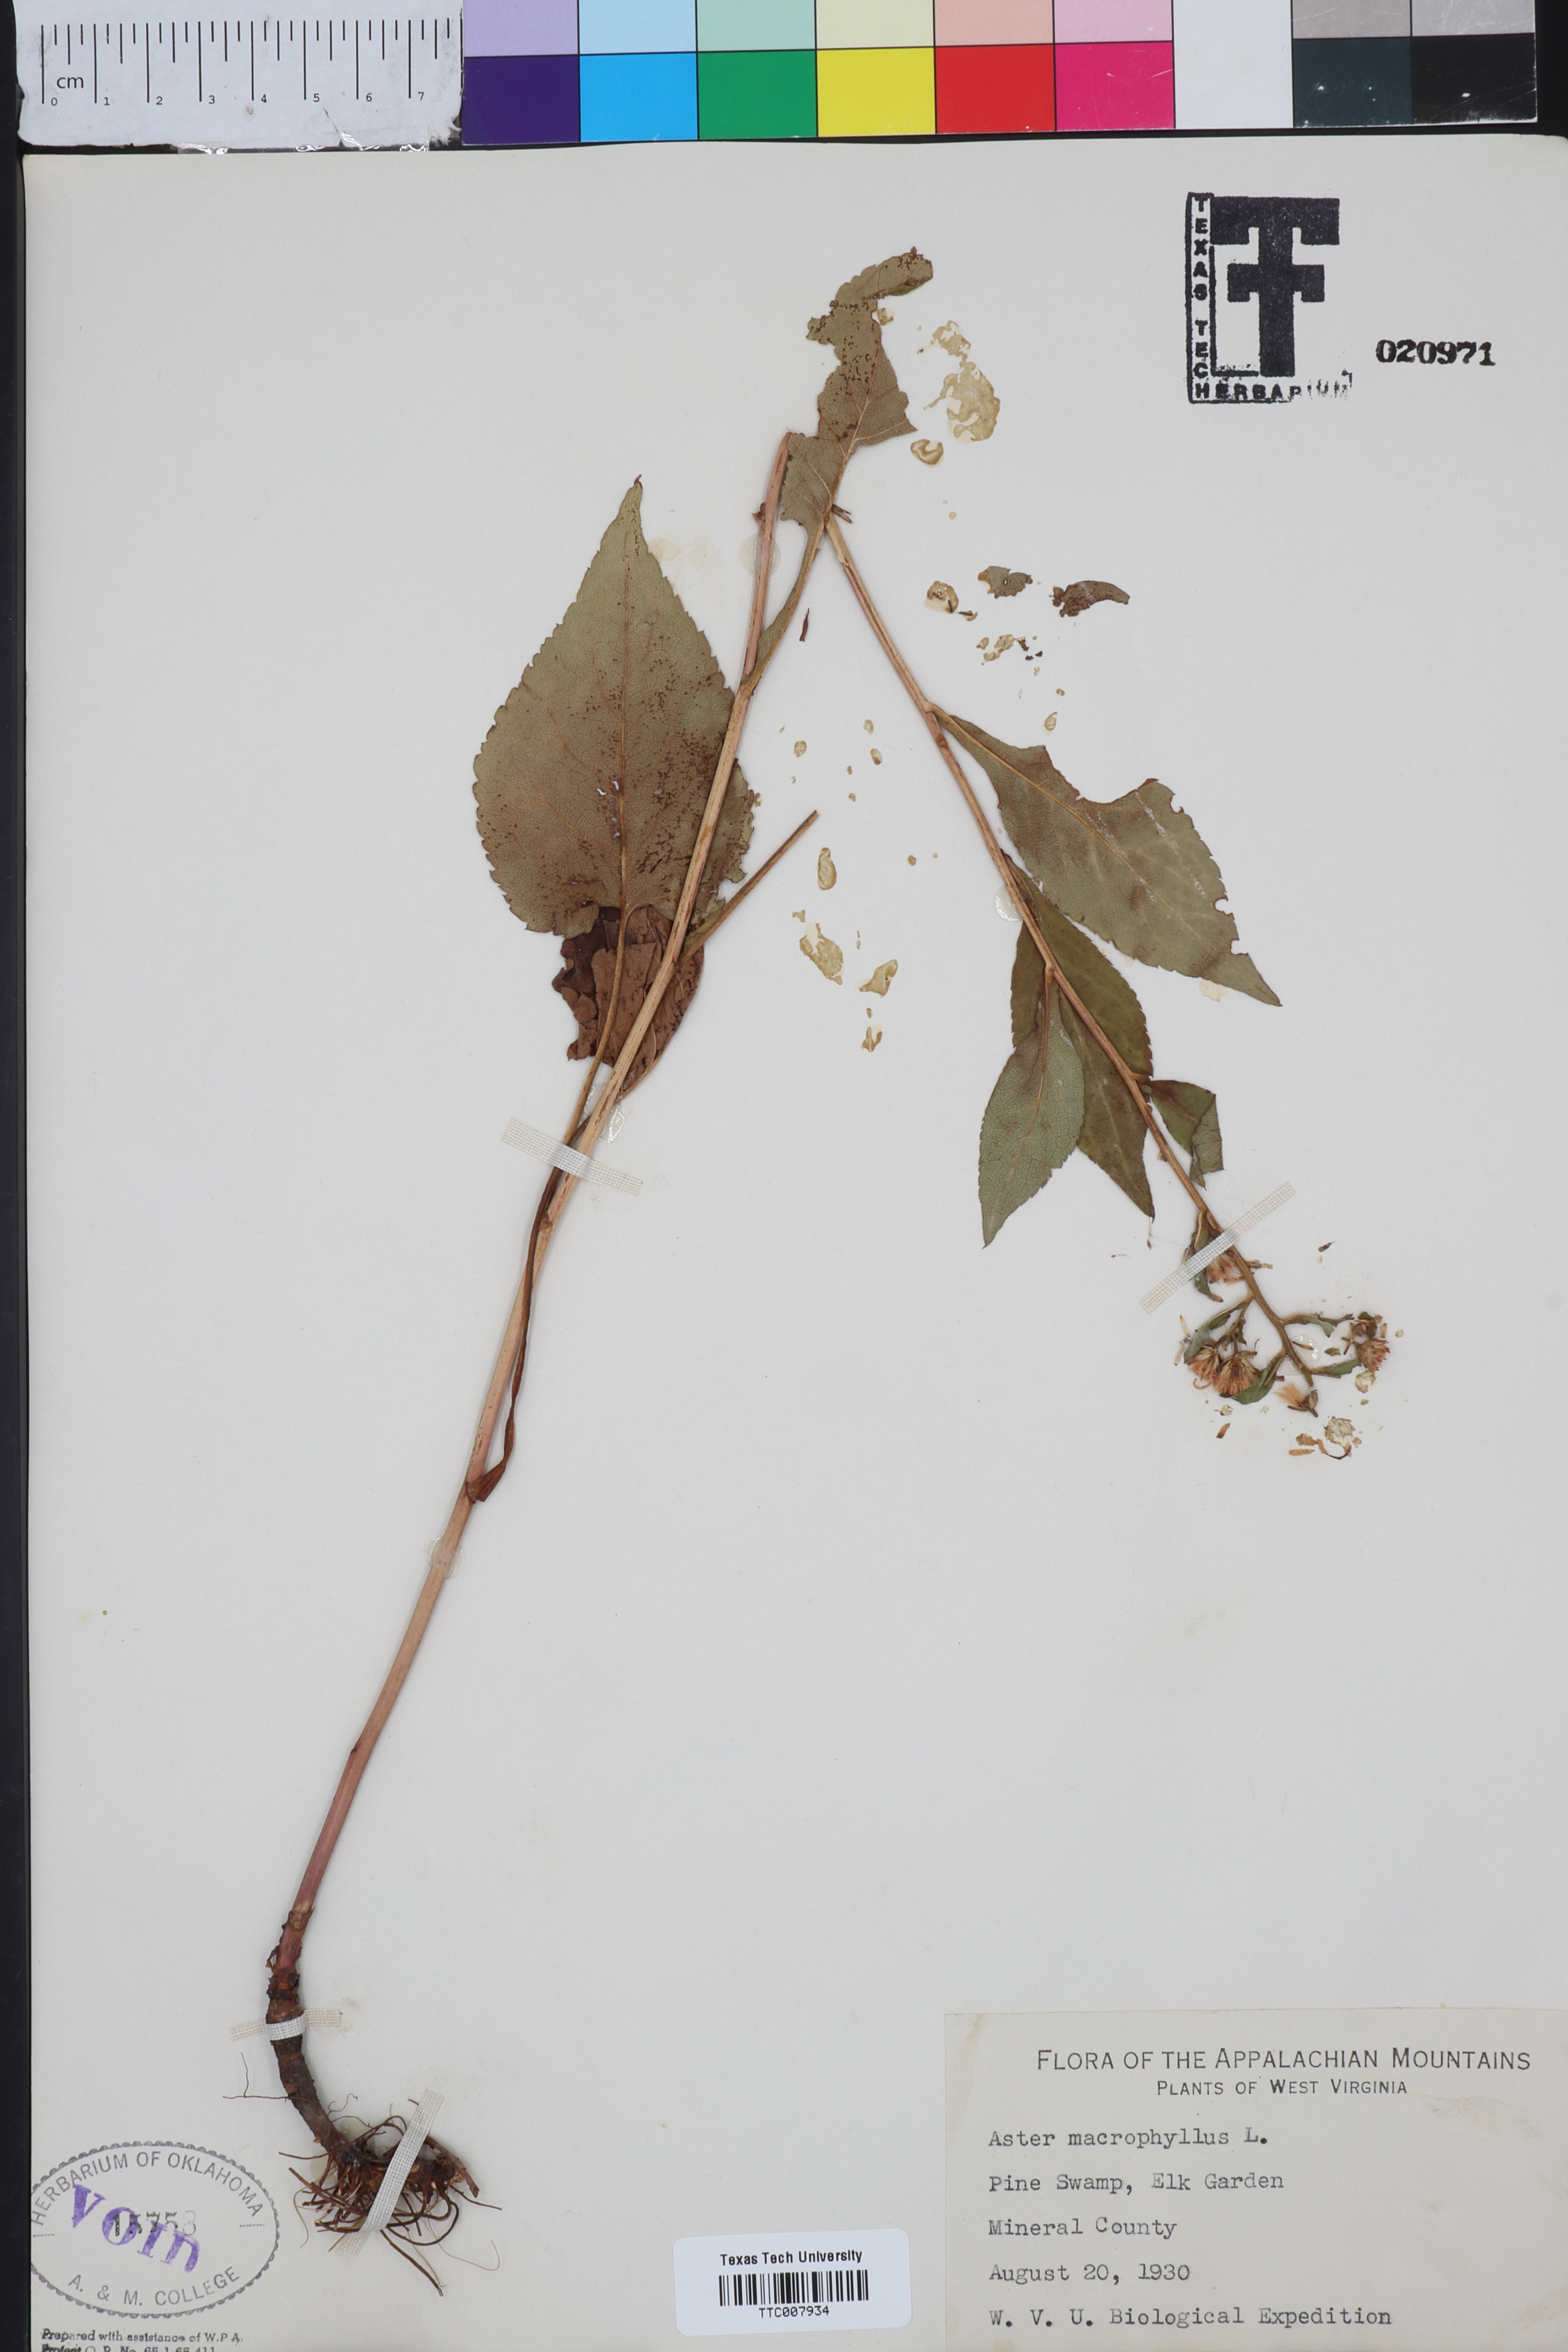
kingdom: Plantae
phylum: Tracheophyta
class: Magnoliopsida
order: Asterales
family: Asteraceae
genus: Eurybia
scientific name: Eurybia macrophylla
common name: Big-leaved aster
